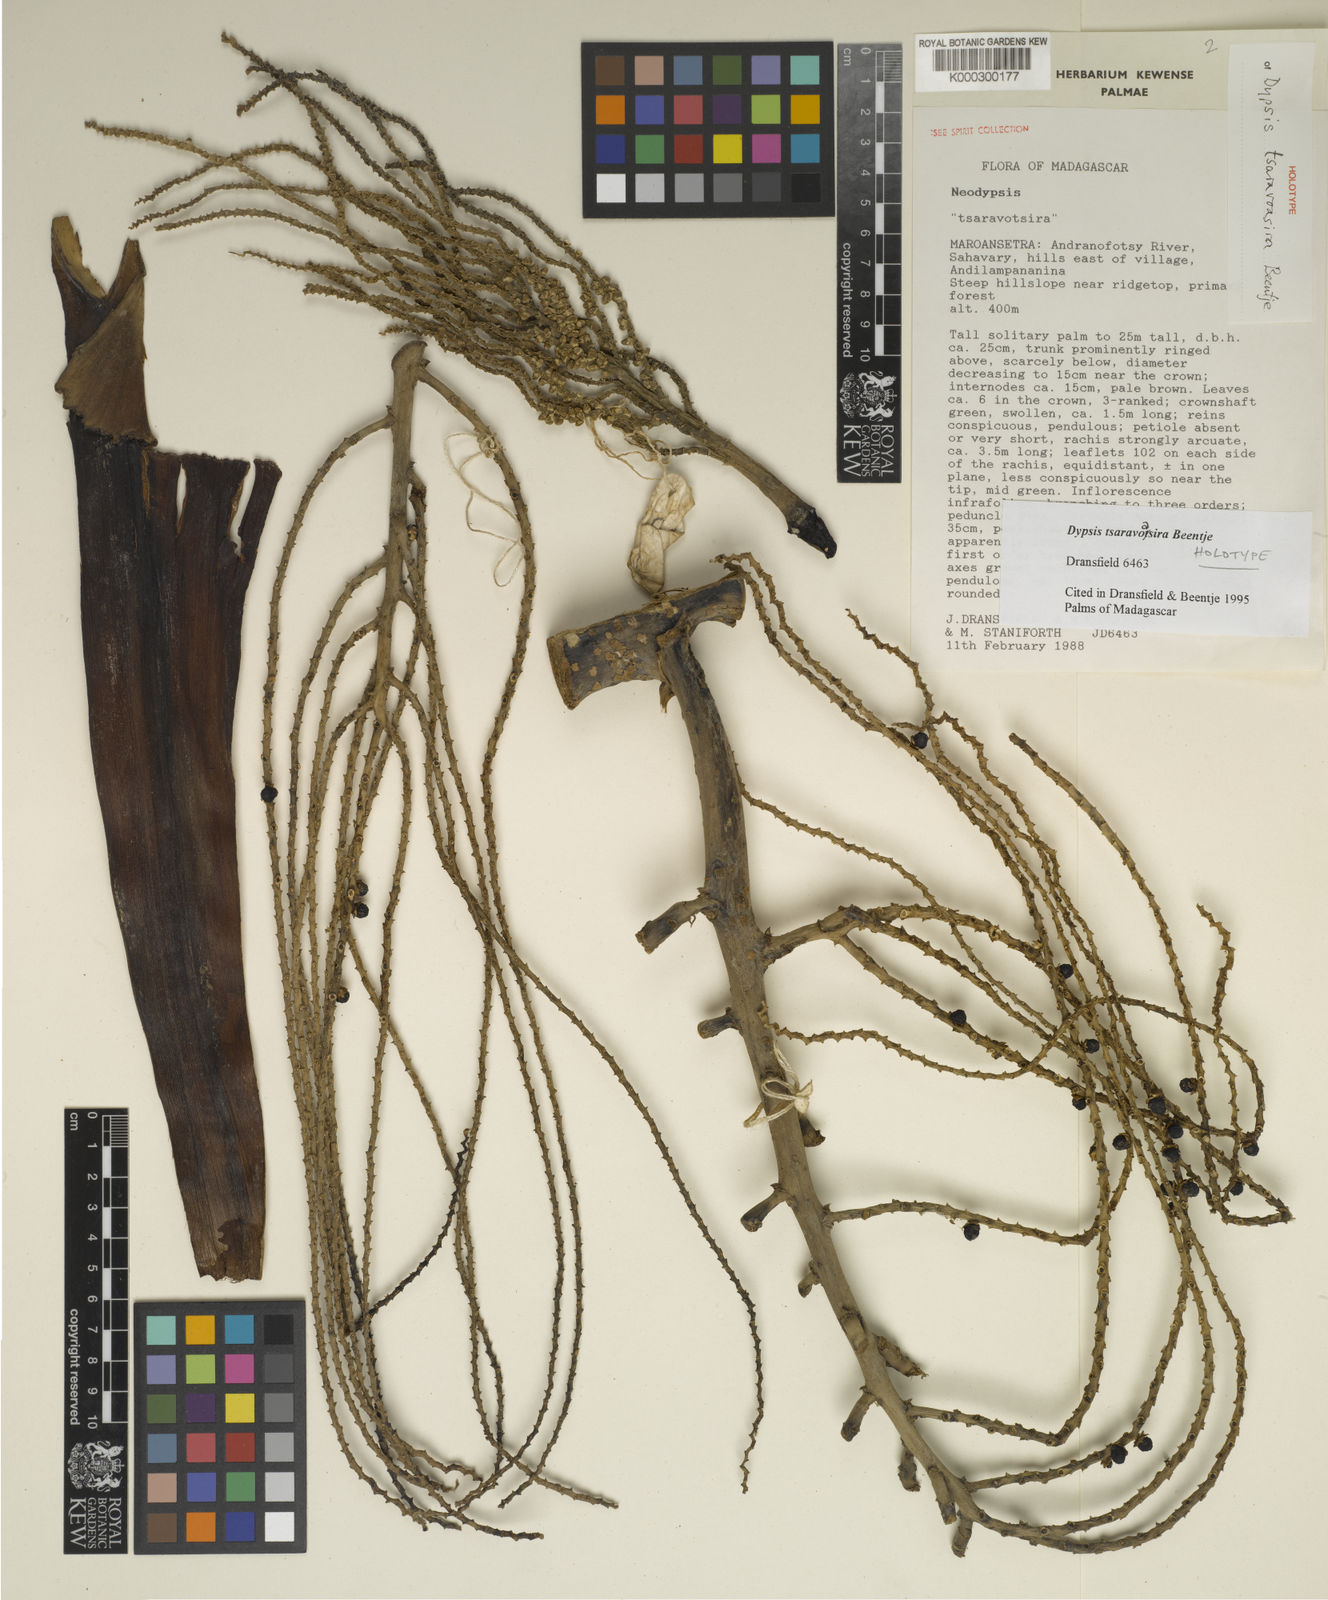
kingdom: Plantae
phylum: Tracheophyta
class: Liliopsida
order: Arecales
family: Arecaceae
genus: Dypsis
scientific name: Dypsis tsaravoasira
